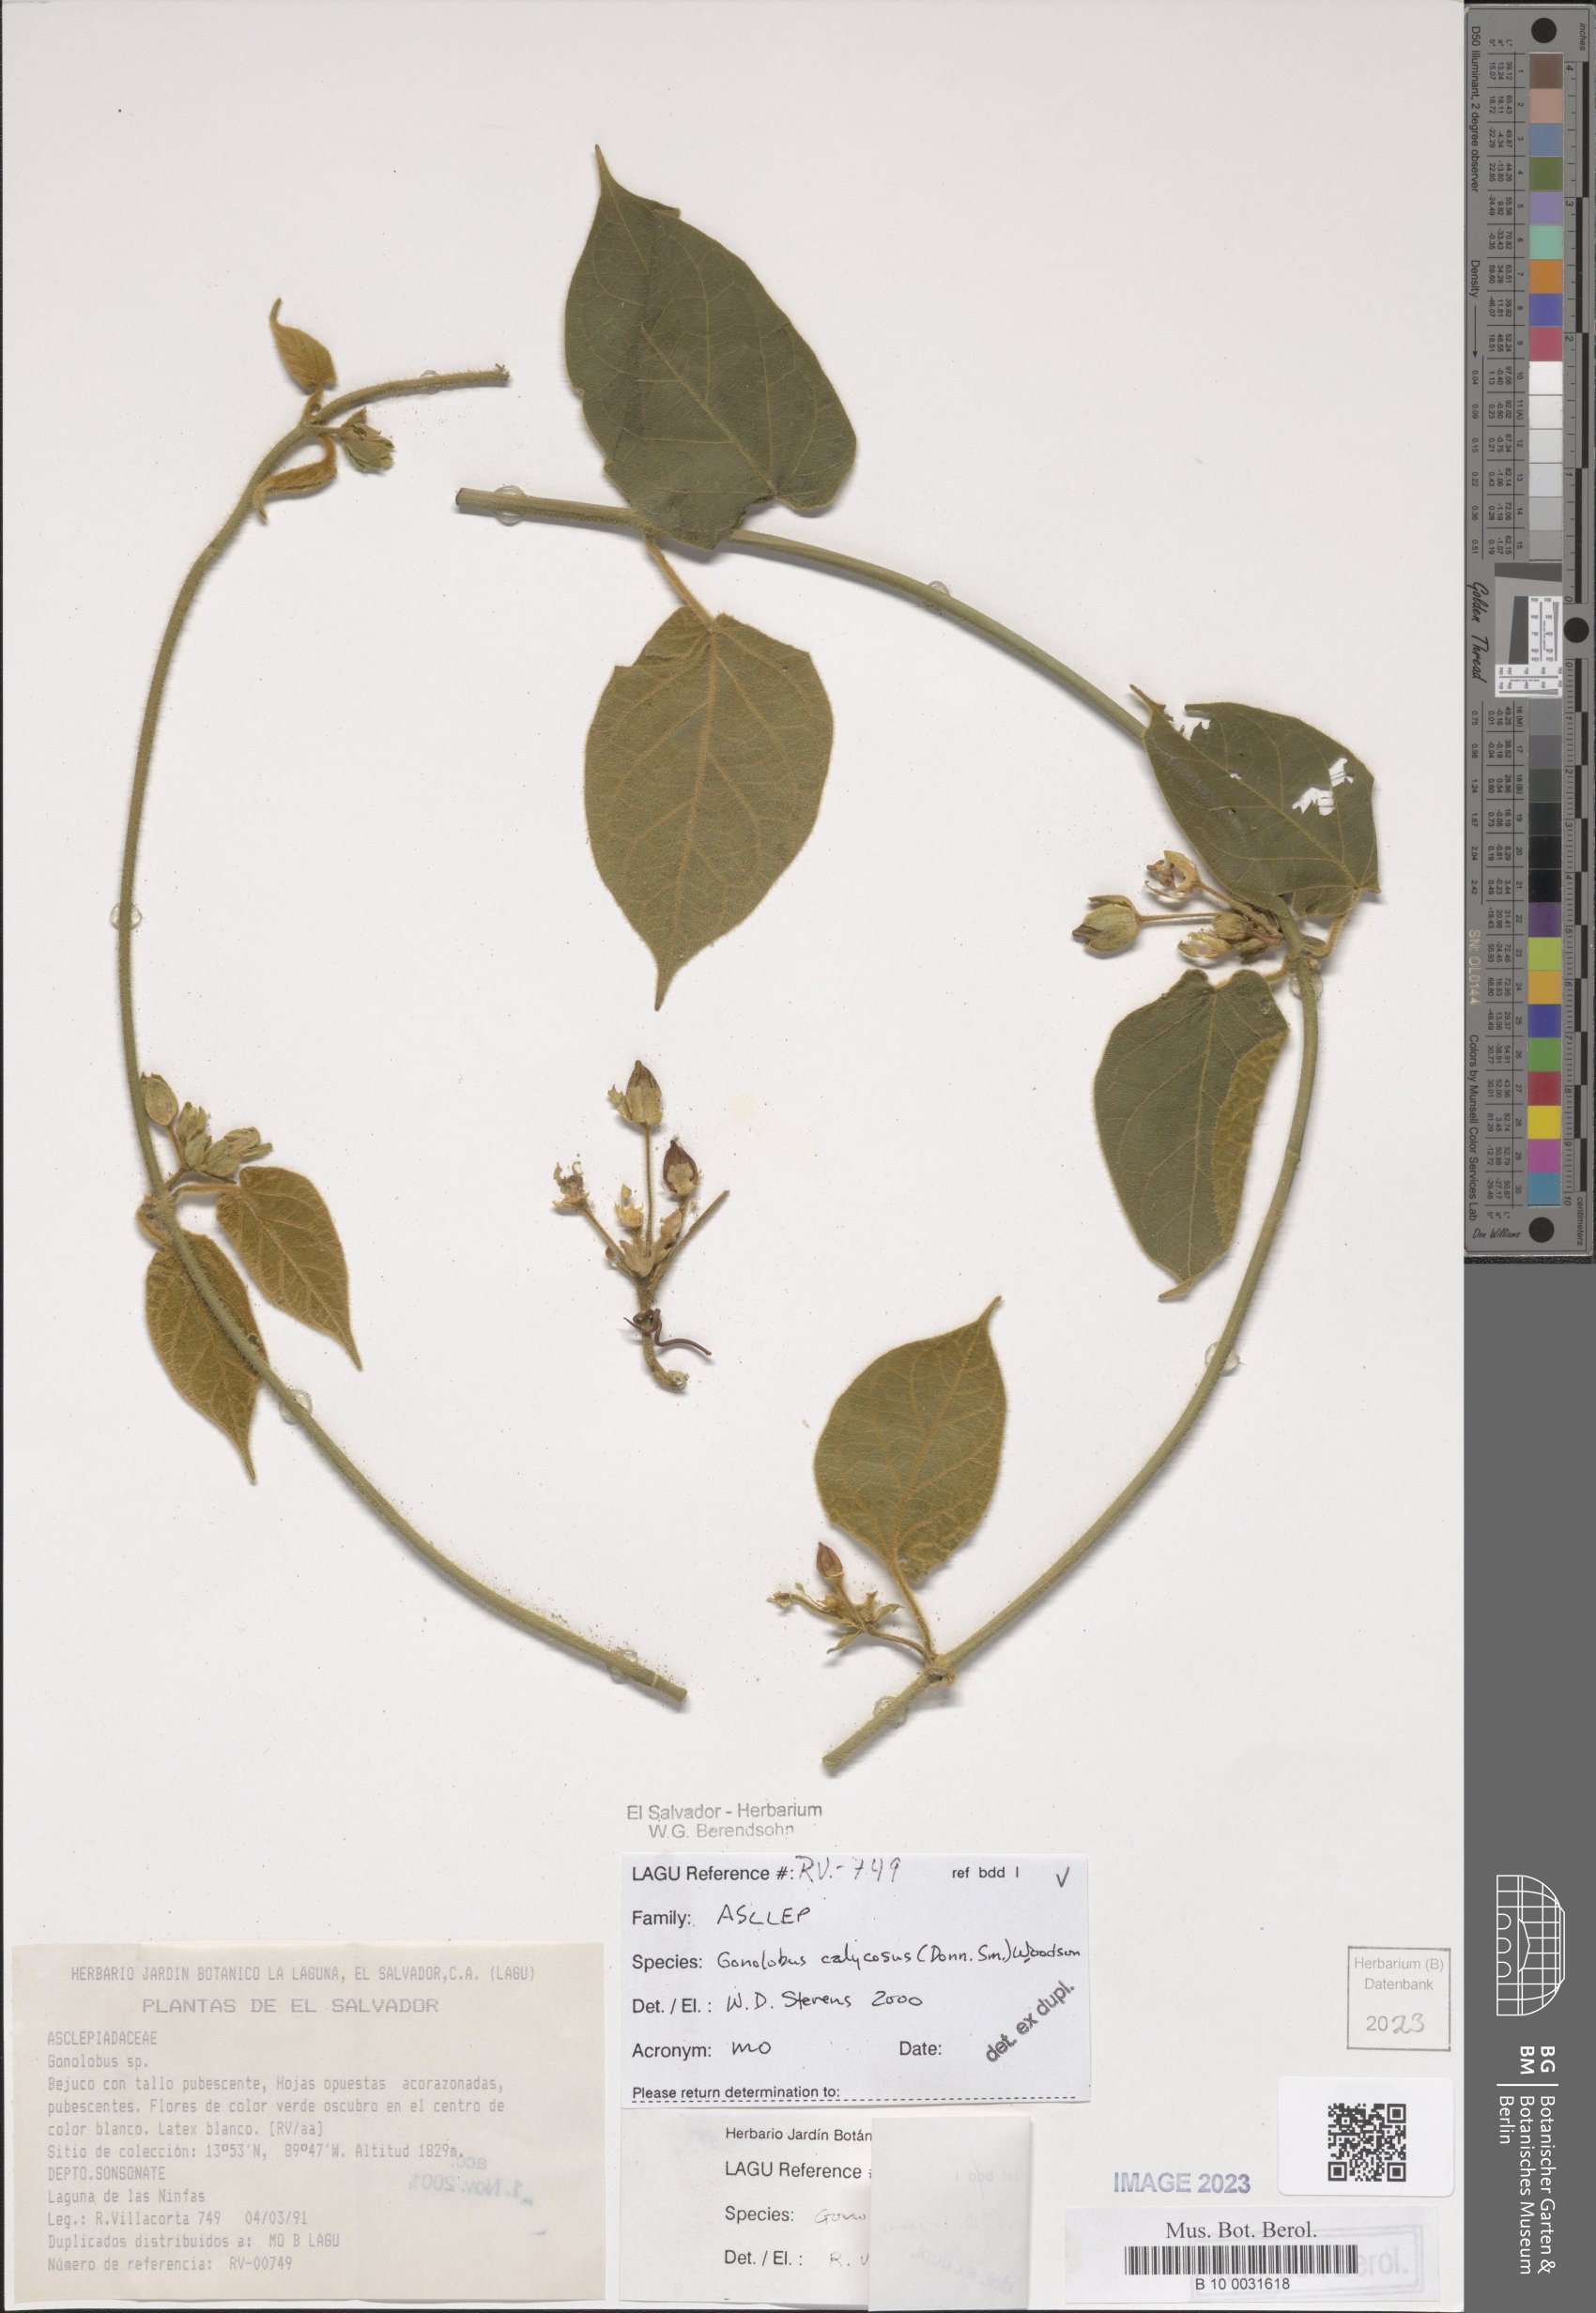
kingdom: Plantae
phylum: Tracheophyta
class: Magnoliopsida
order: Gentianales
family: Apocynaceae
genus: Gonolobus
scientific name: Gonolobus calycosus
